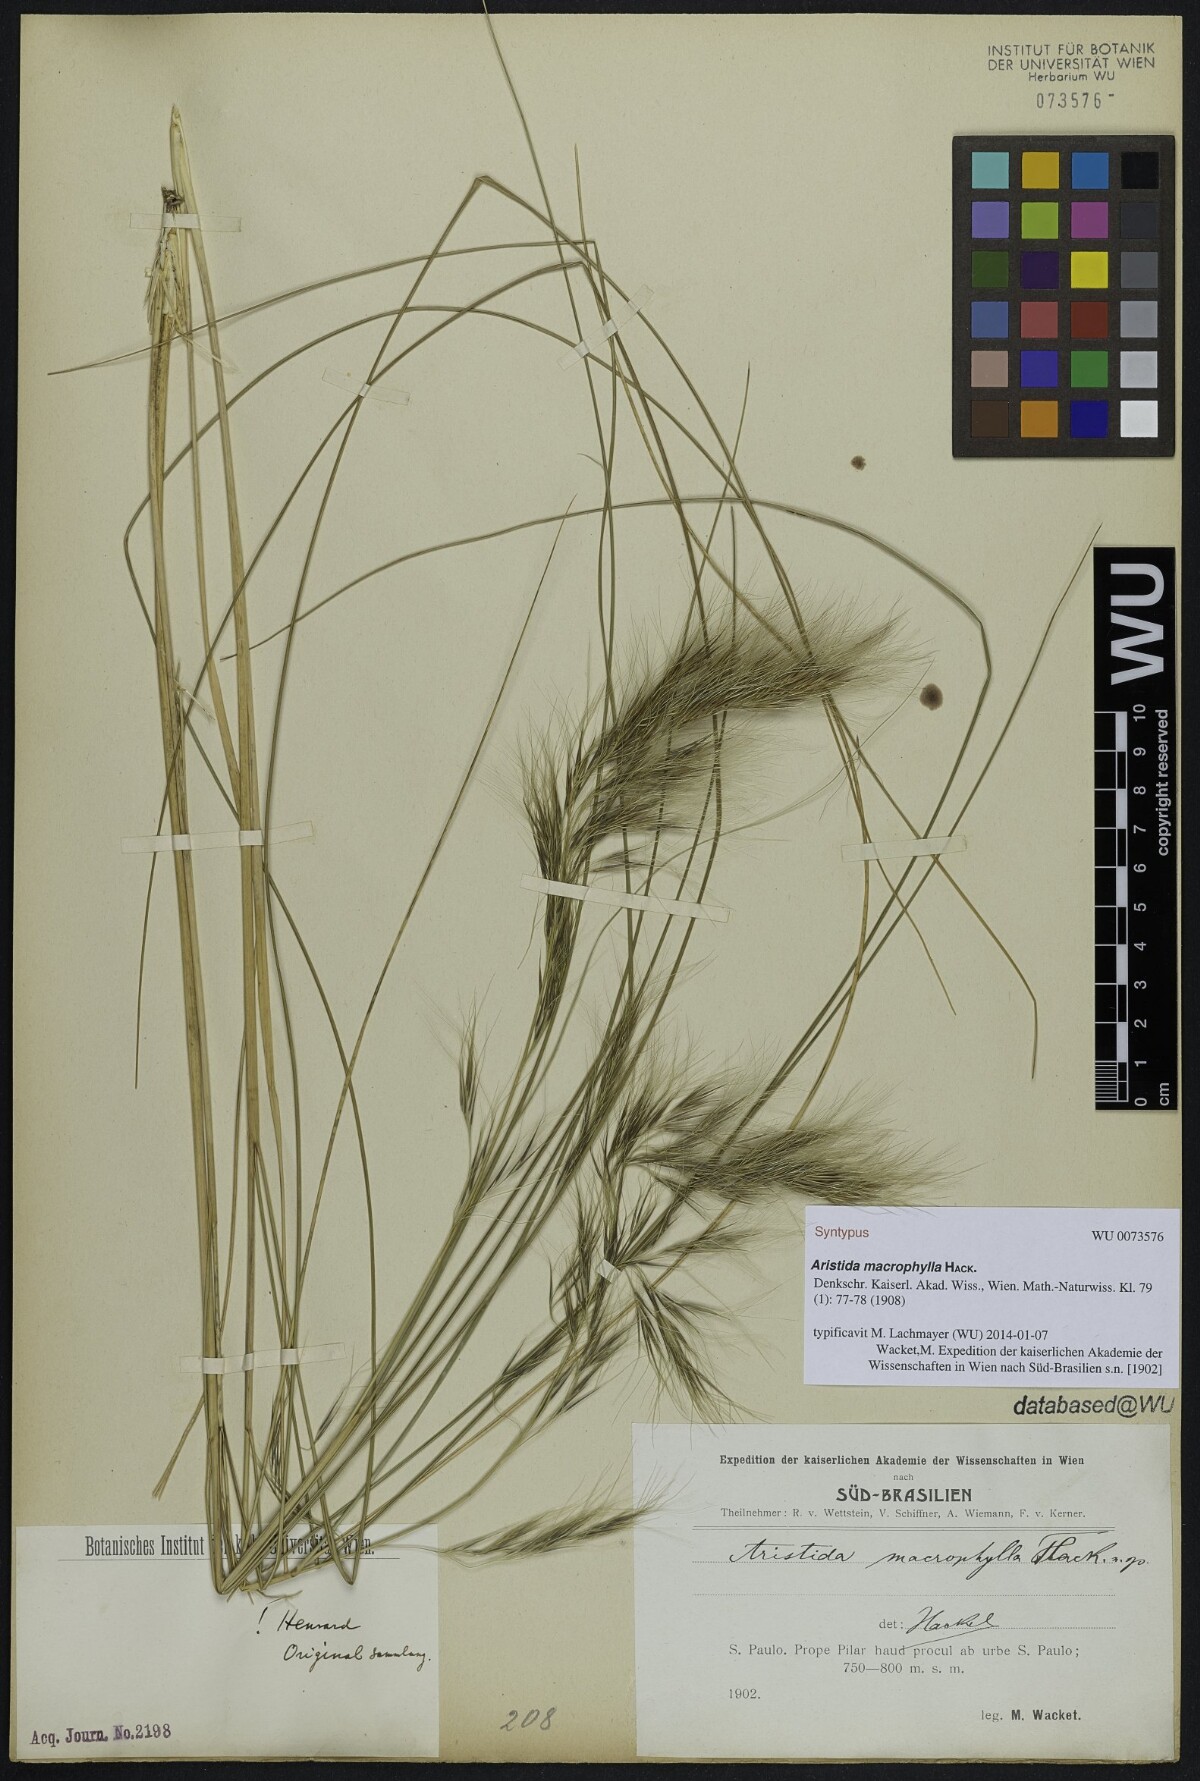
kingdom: Plantae
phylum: Tracheophyta
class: Liliopsida
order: Poales
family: Poaceae
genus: Aristida
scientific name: Aristida macrophylla
